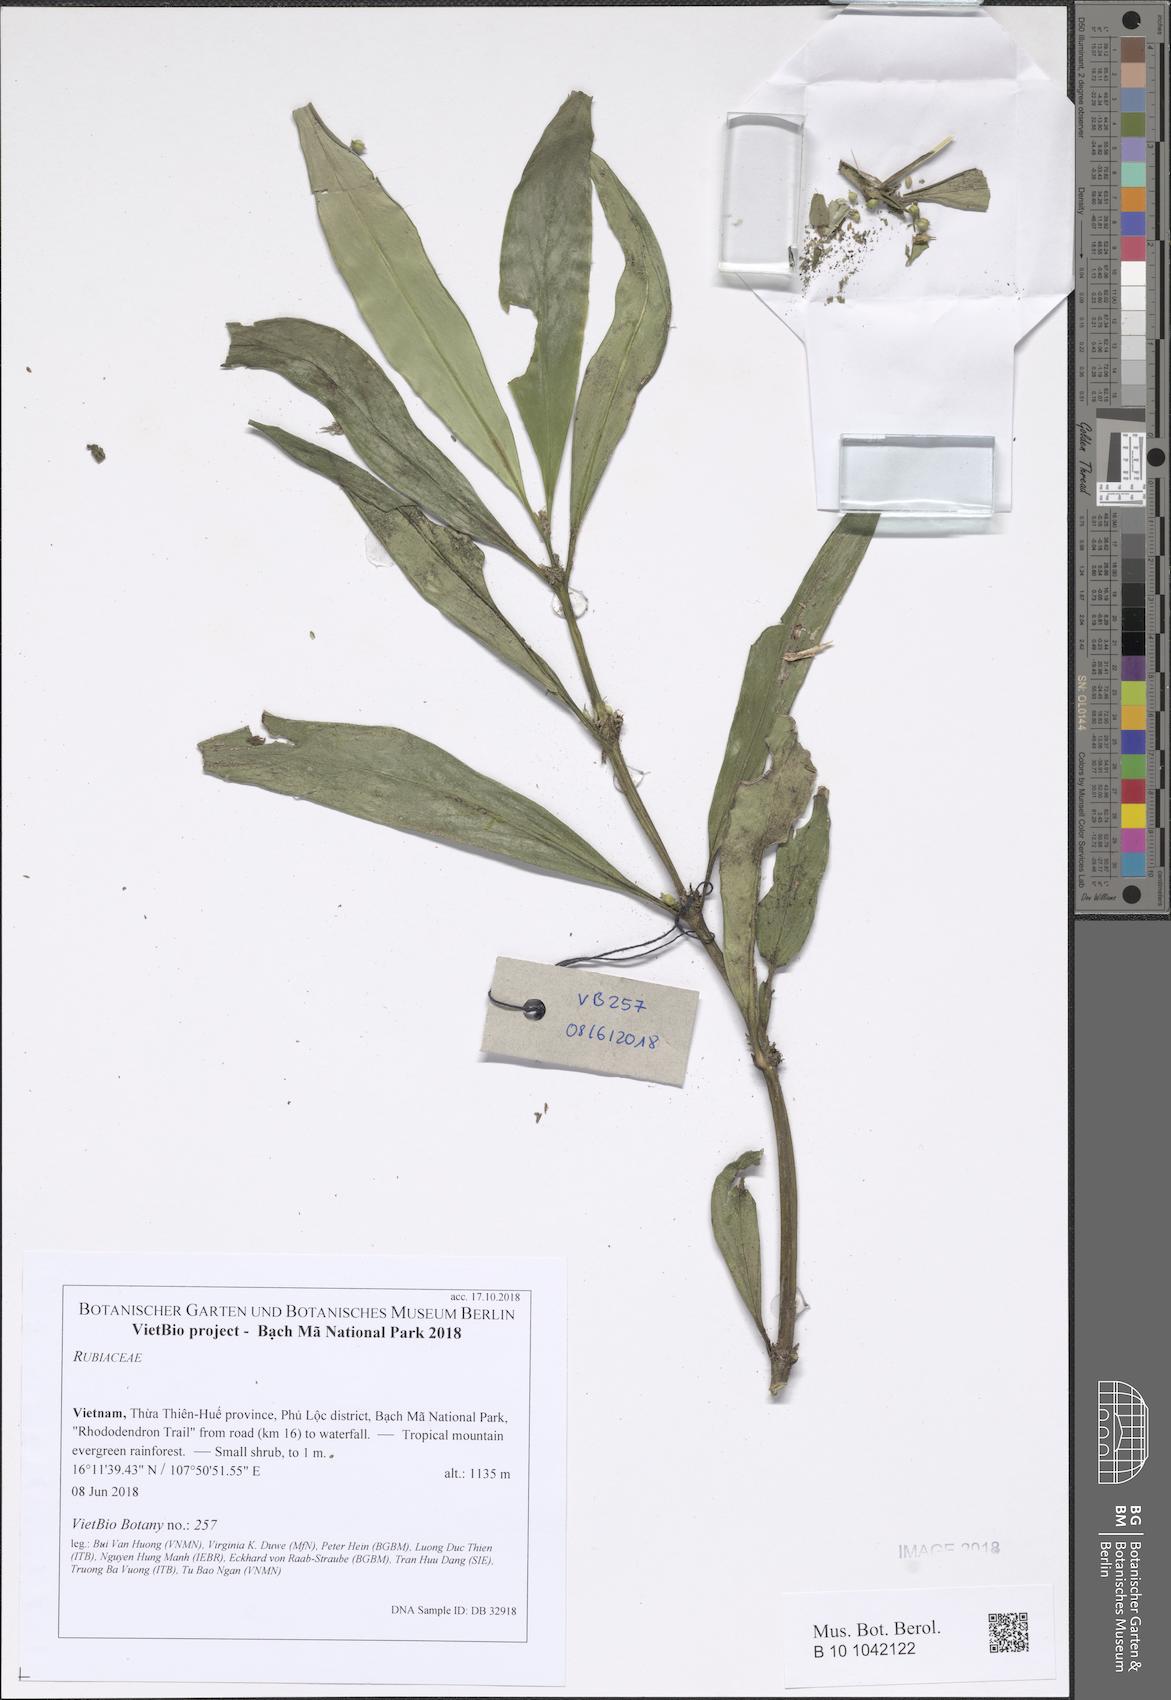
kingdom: Plantae
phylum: Tracheophyta
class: Magnoliopsida
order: Gentianales
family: Rubiaceae
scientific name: Rubiaceae
